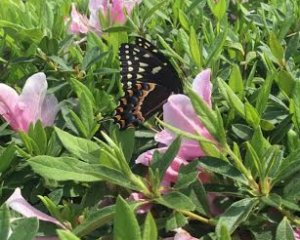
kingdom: Animalia
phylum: Arthropoda
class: Insecta
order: Lepidoptera
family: Papilionidae
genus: Pterourus
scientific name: Pterourus palamedes
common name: Palamedes Swallowtail
